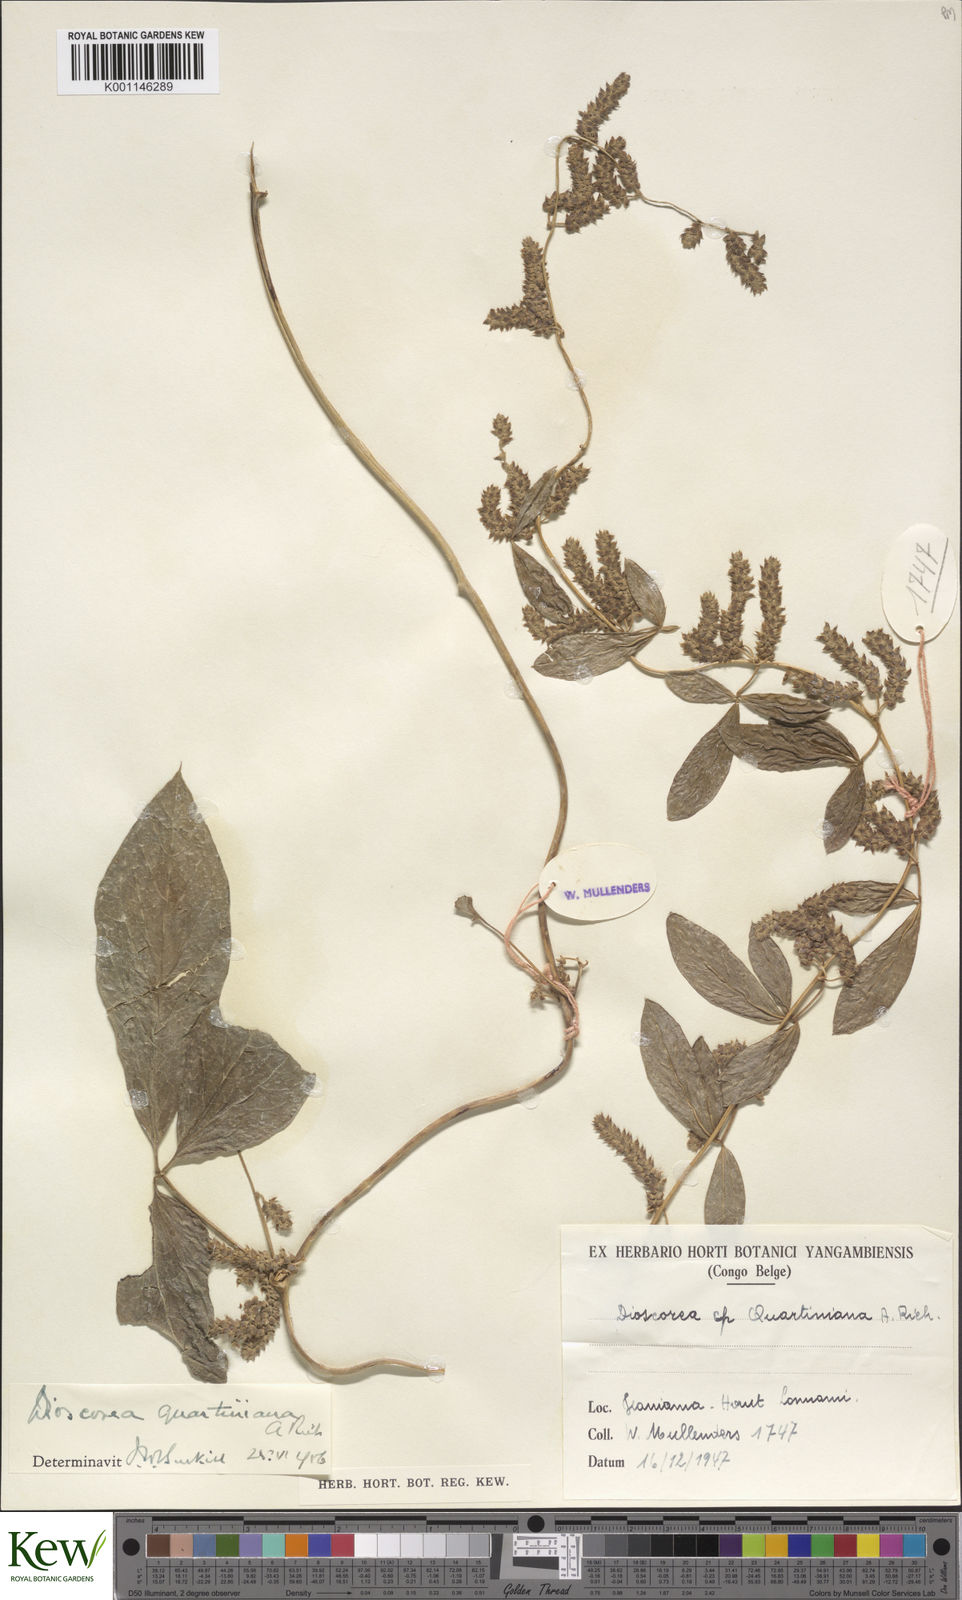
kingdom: Plantae
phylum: Tracheophyta
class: Liliopsida
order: Dioscoreales
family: Dioscoreaceae
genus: Dioscorea
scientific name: Dioscorea quartiniana
